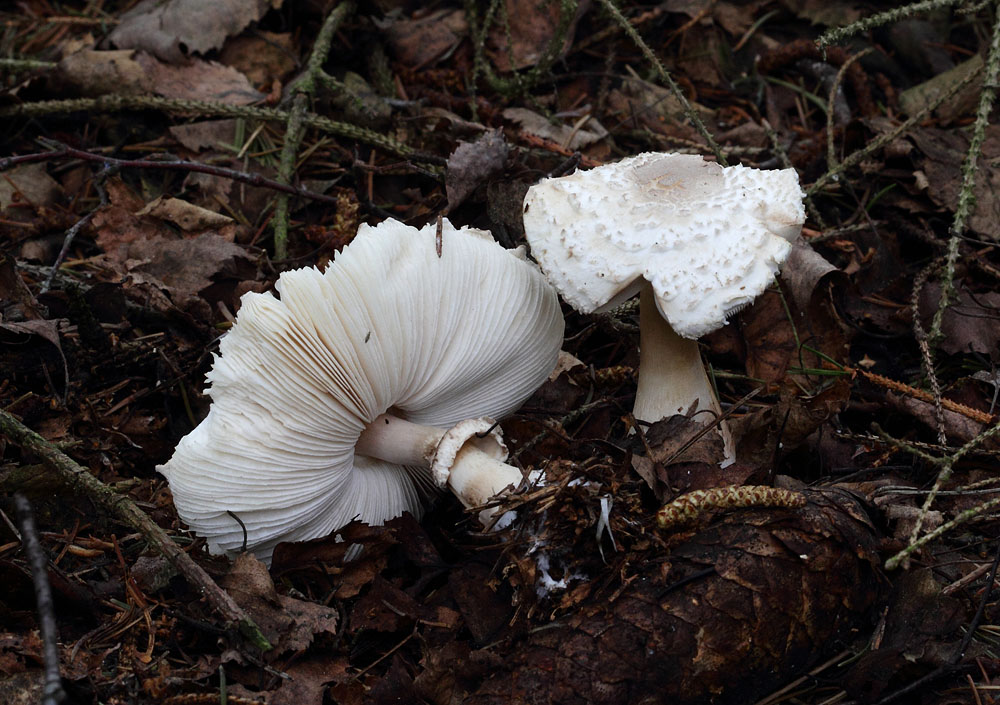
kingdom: Fungi
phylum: Basidiomycota
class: Agaricomycetes
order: Agaricales
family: Agaricaceae
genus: Leucoagaricus
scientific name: Leucoagaricus nympharum
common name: gran-silkehat
